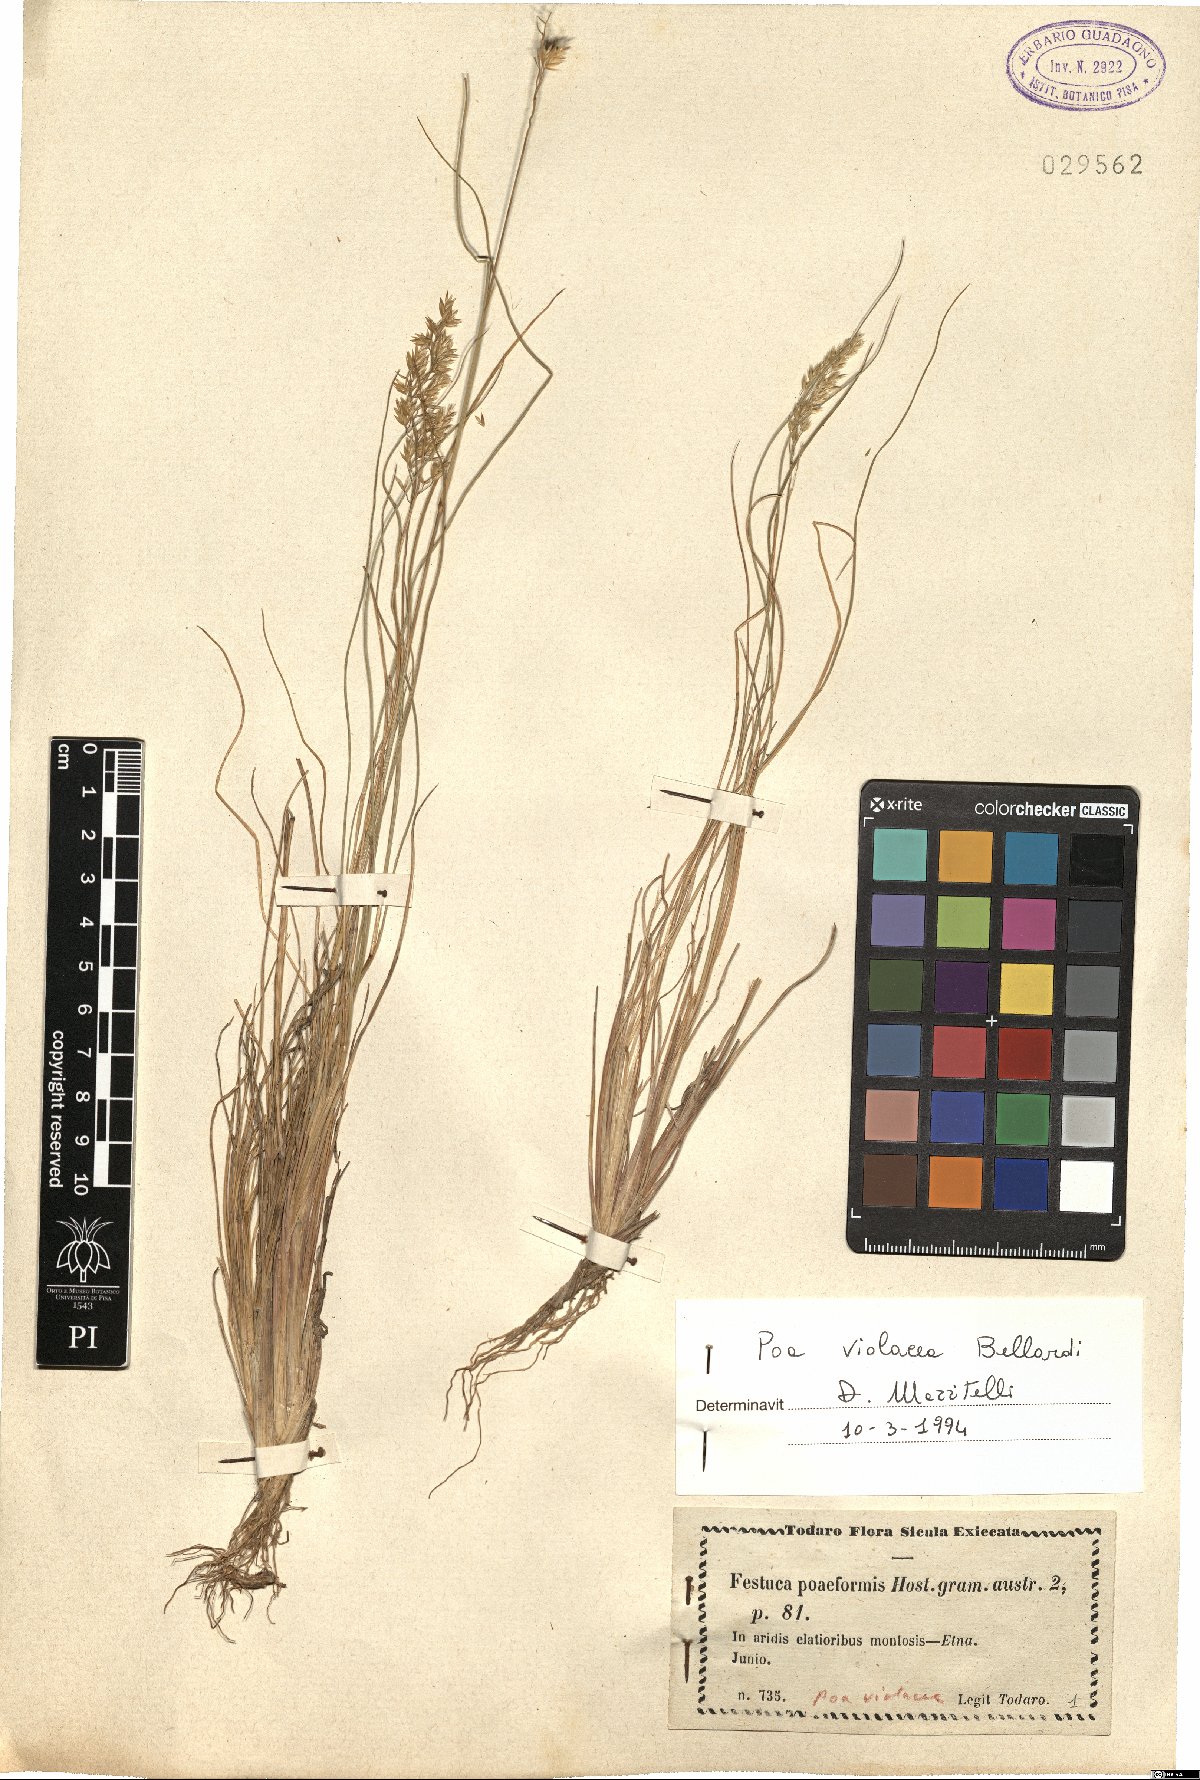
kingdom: Plantae
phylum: Tracheophyta
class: Liliopsida
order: Poales
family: Poaceae
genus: Bellardiochloa
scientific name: Bellardiochloa variegata
